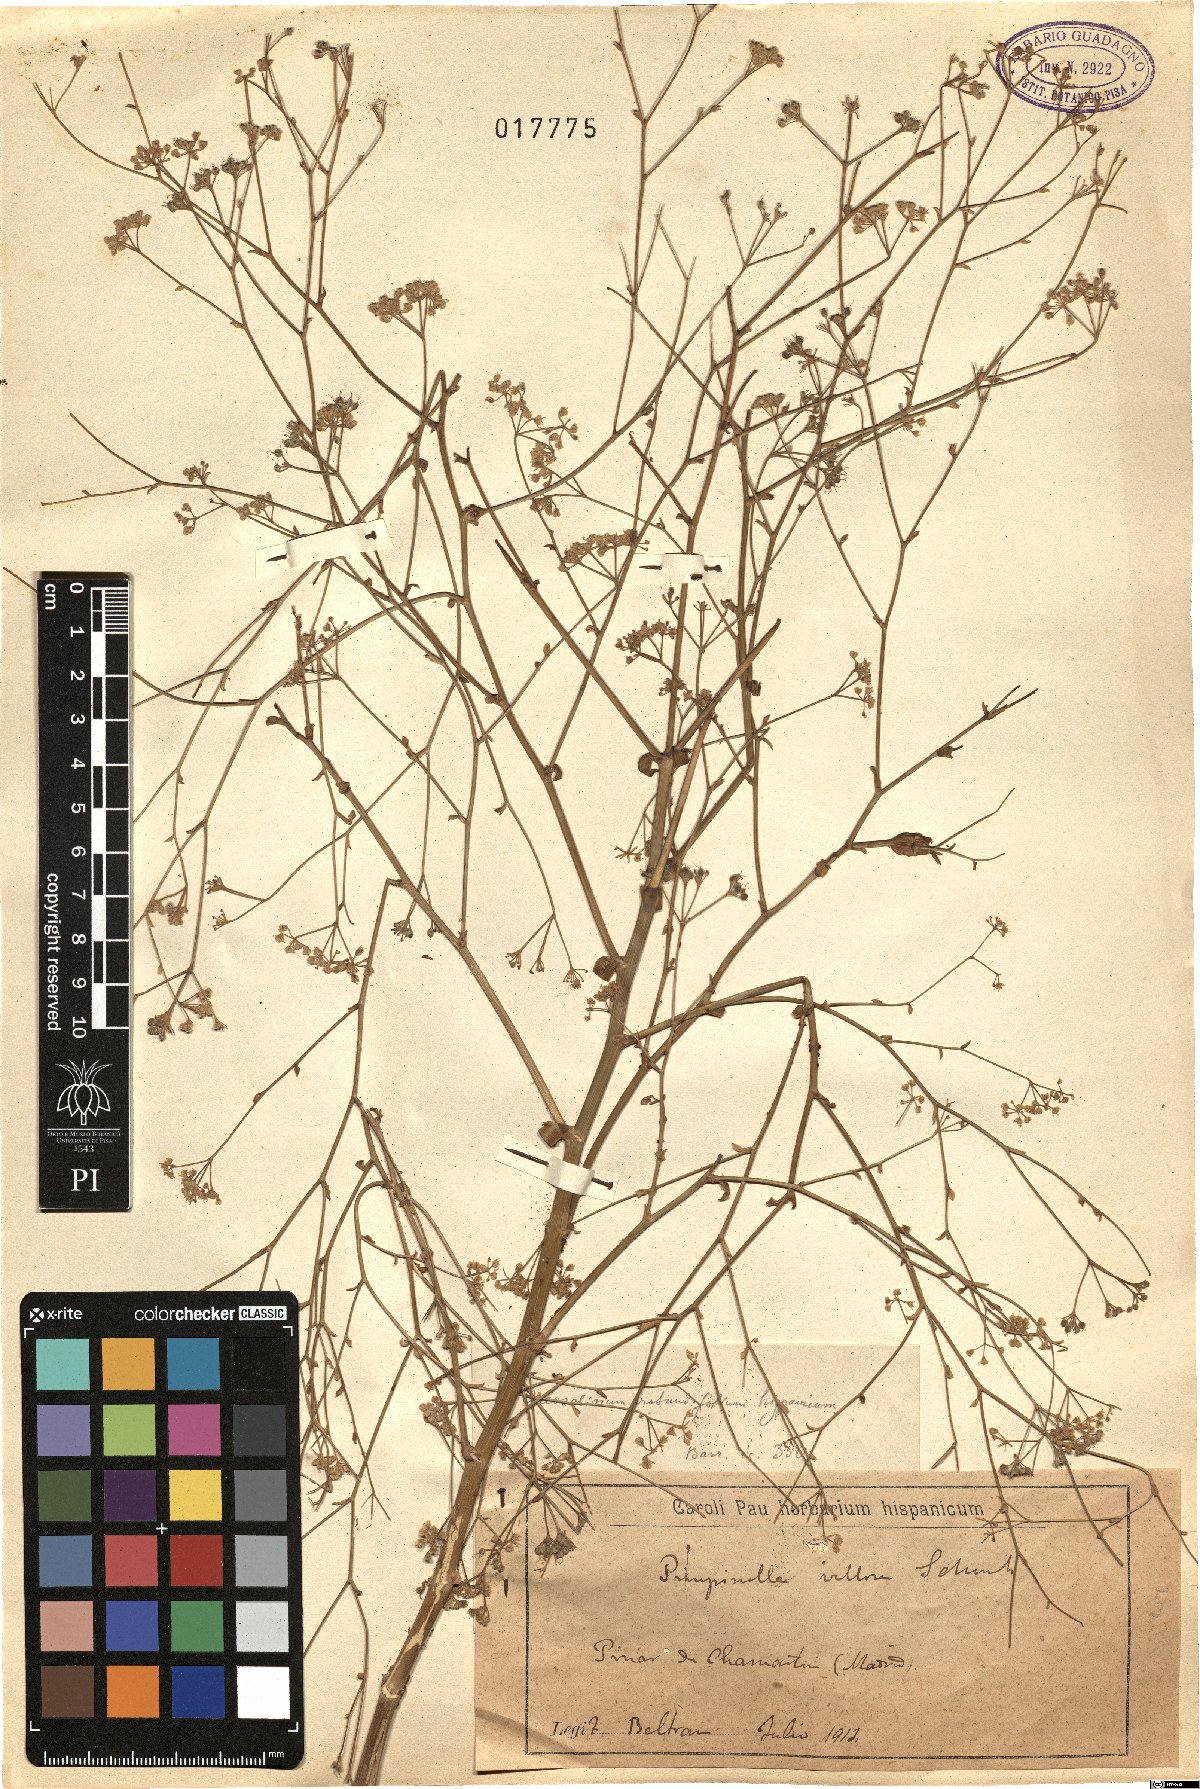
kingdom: Plantae
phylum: Tracheophyta
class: Magnoliopsida
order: Apiales
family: Apiaceae
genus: Pimpinella
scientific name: Pimpinella villosa
